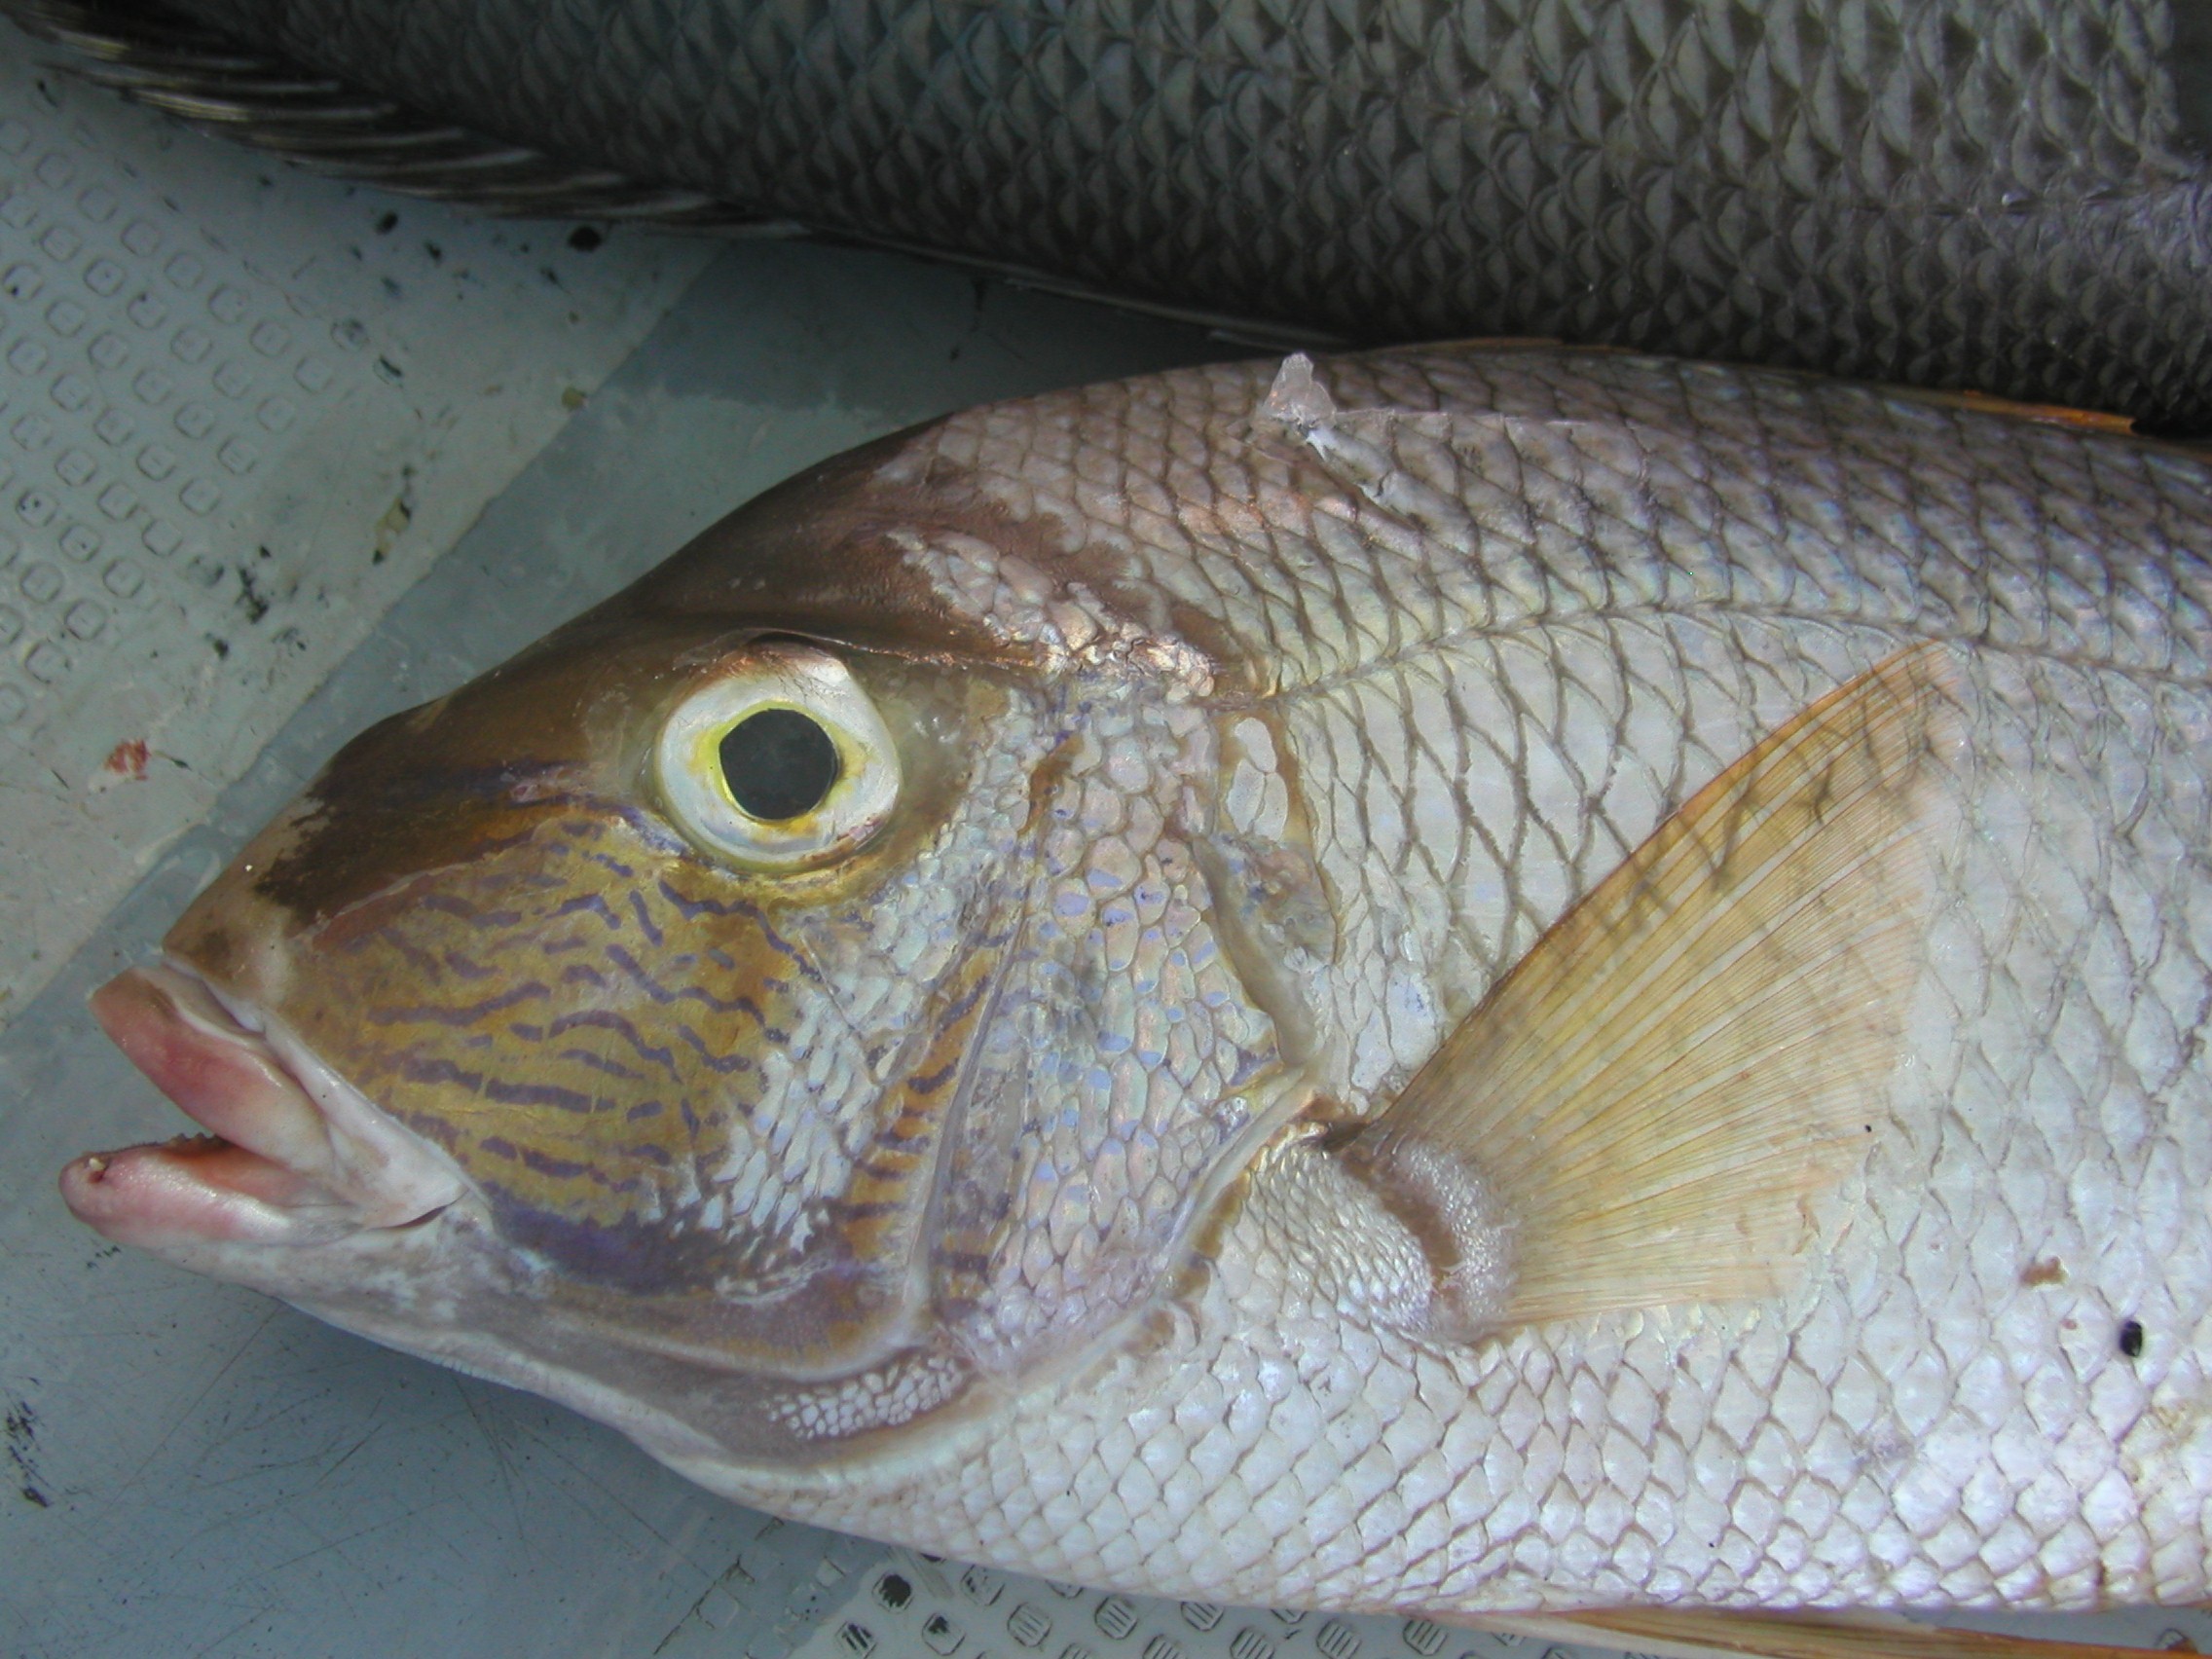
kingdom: Animalia
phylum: Chordata
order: Perciformes
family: Lethrinidae
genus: Gymnocranius
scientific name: Gymnocranius grandoculis
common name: Blue-lined large-eye bream
